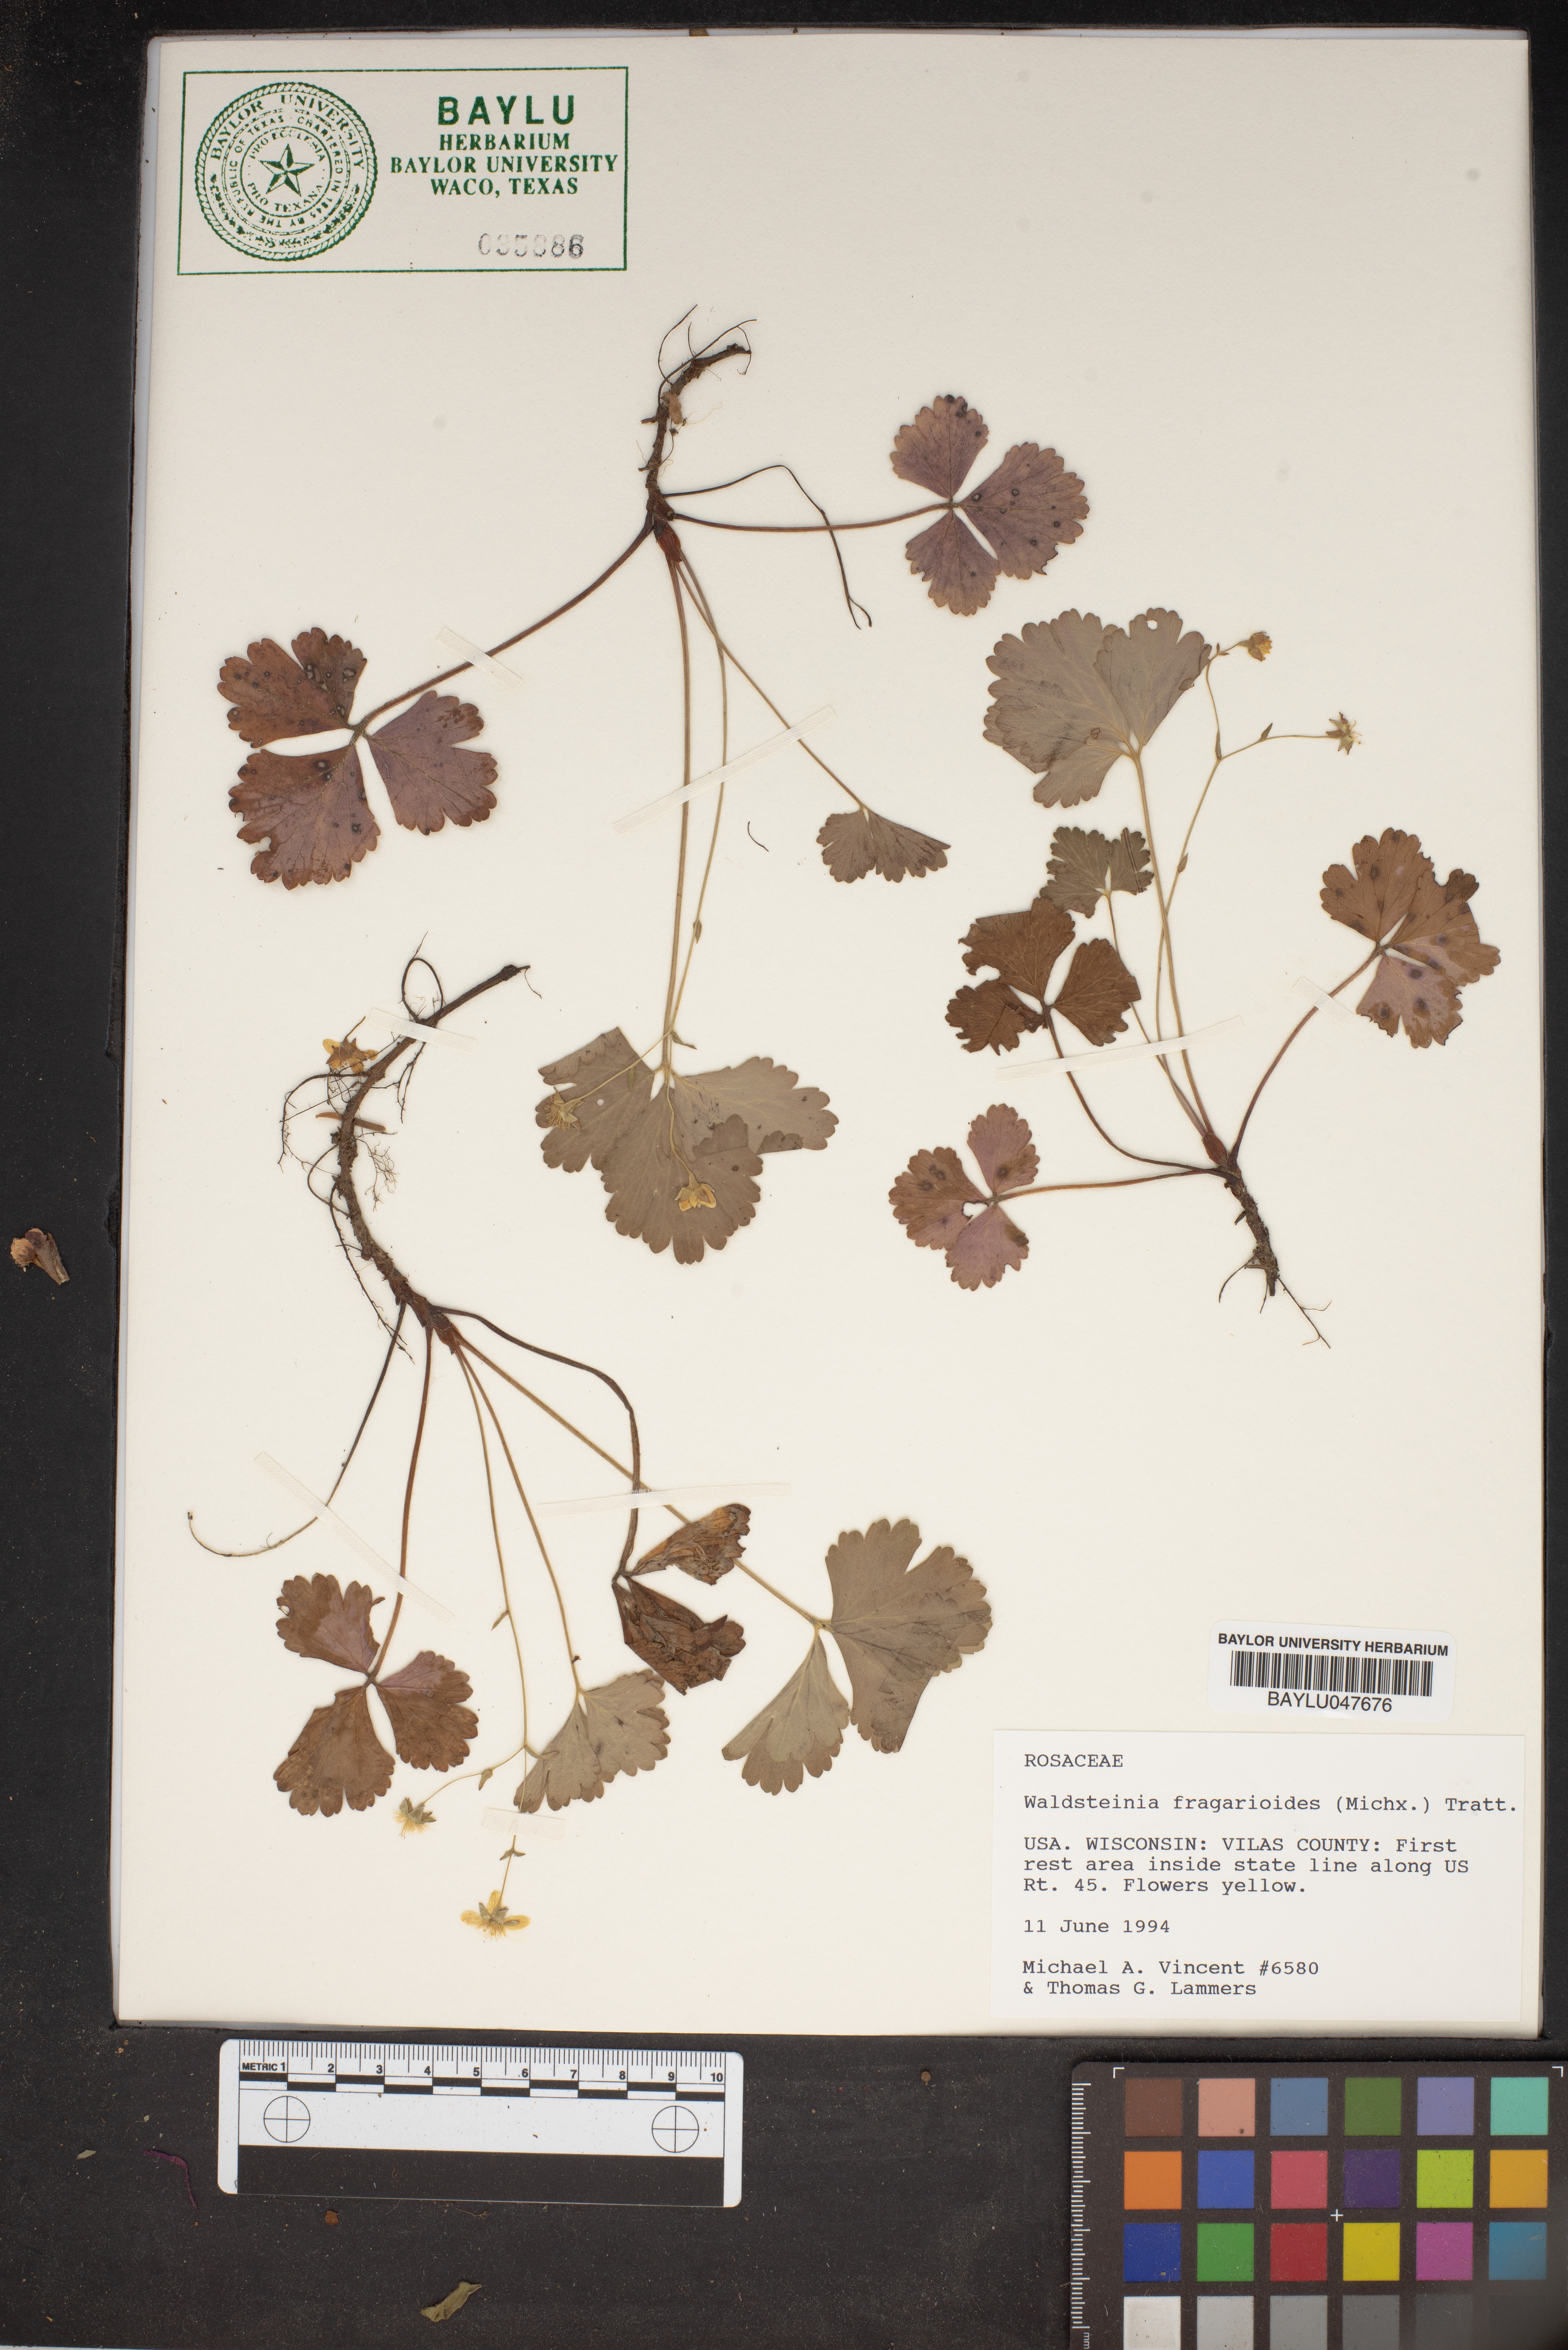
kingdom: Plantae
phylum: Tracheophyta
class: Magnoliopsida
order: Rosales
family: Rosaceae
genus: Geum
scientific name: Geum fragarioides
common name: Appalachian barren strawberry
